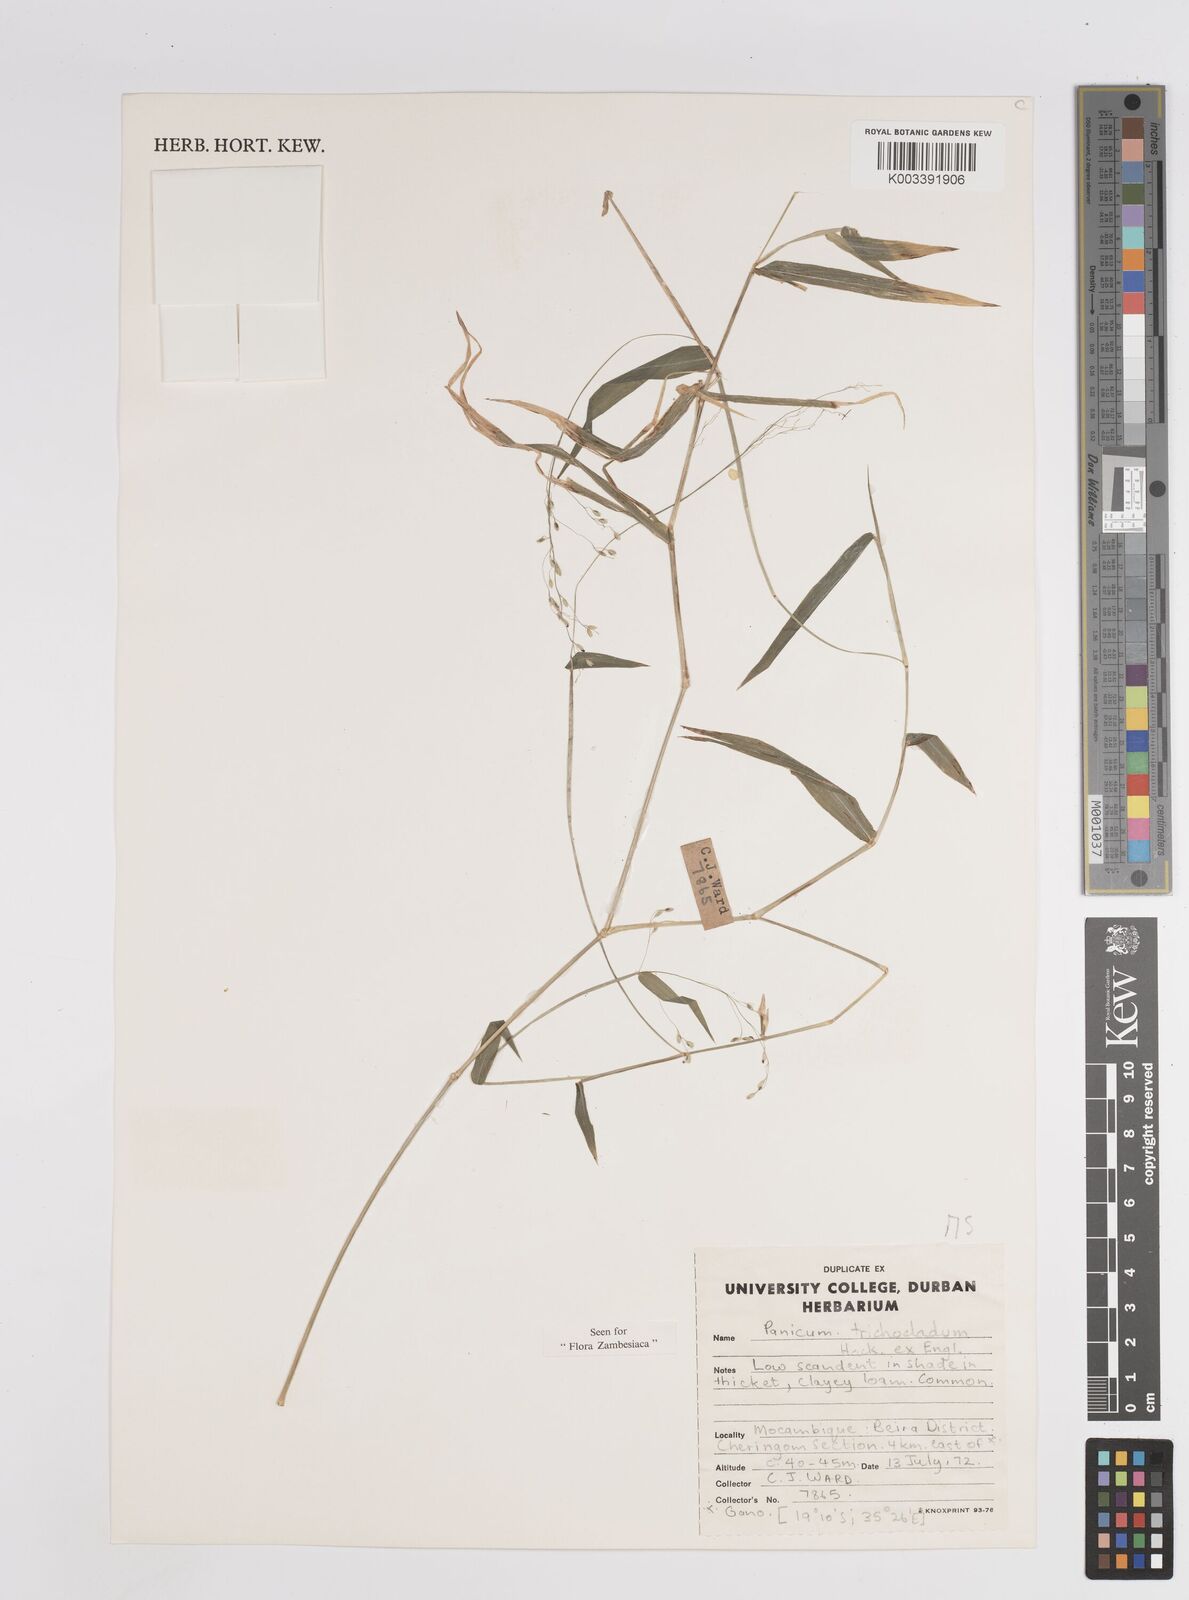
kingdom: Plantae
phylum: Tracheophyta
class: Liliopsida
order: Poales
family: Poaceae
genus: Panicum
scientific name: Panicum trichocladum
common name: Donkey grass
